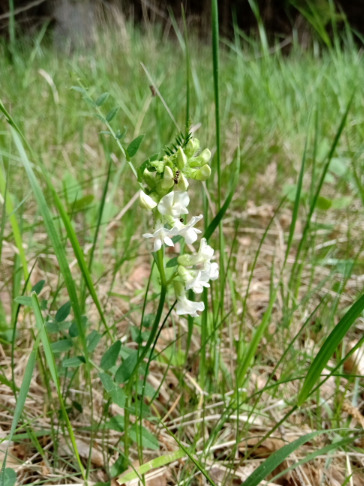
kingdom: Plantae
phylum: Tracheophyta
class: Magnoliopsida
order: Fabales
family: Fabaceae
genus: Vicia
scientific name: Vicia sepium
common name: Gærde-vikke
